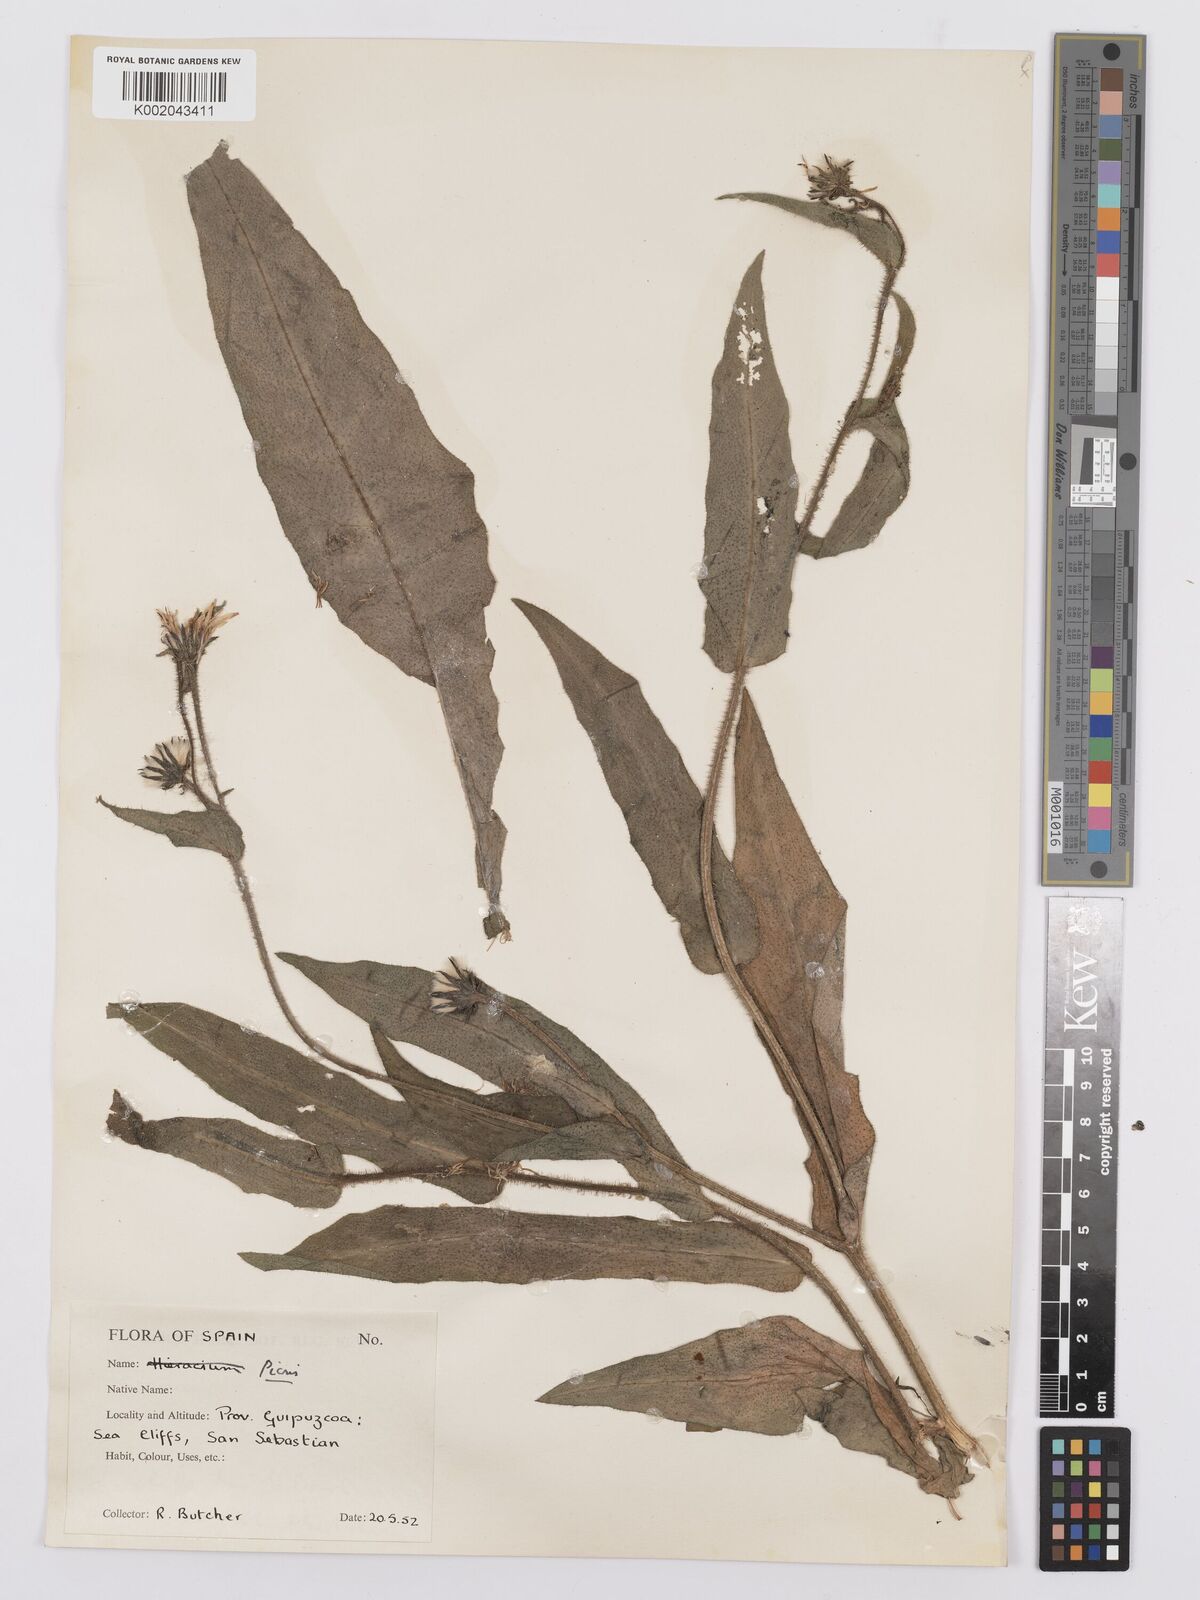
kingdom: Plantae
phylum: Tracheophyta
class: Magnoliopsida
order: Asterales
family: Asteraceae
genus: Picris
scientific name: Picris hieracioides
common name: Hawkweed oxtongue
